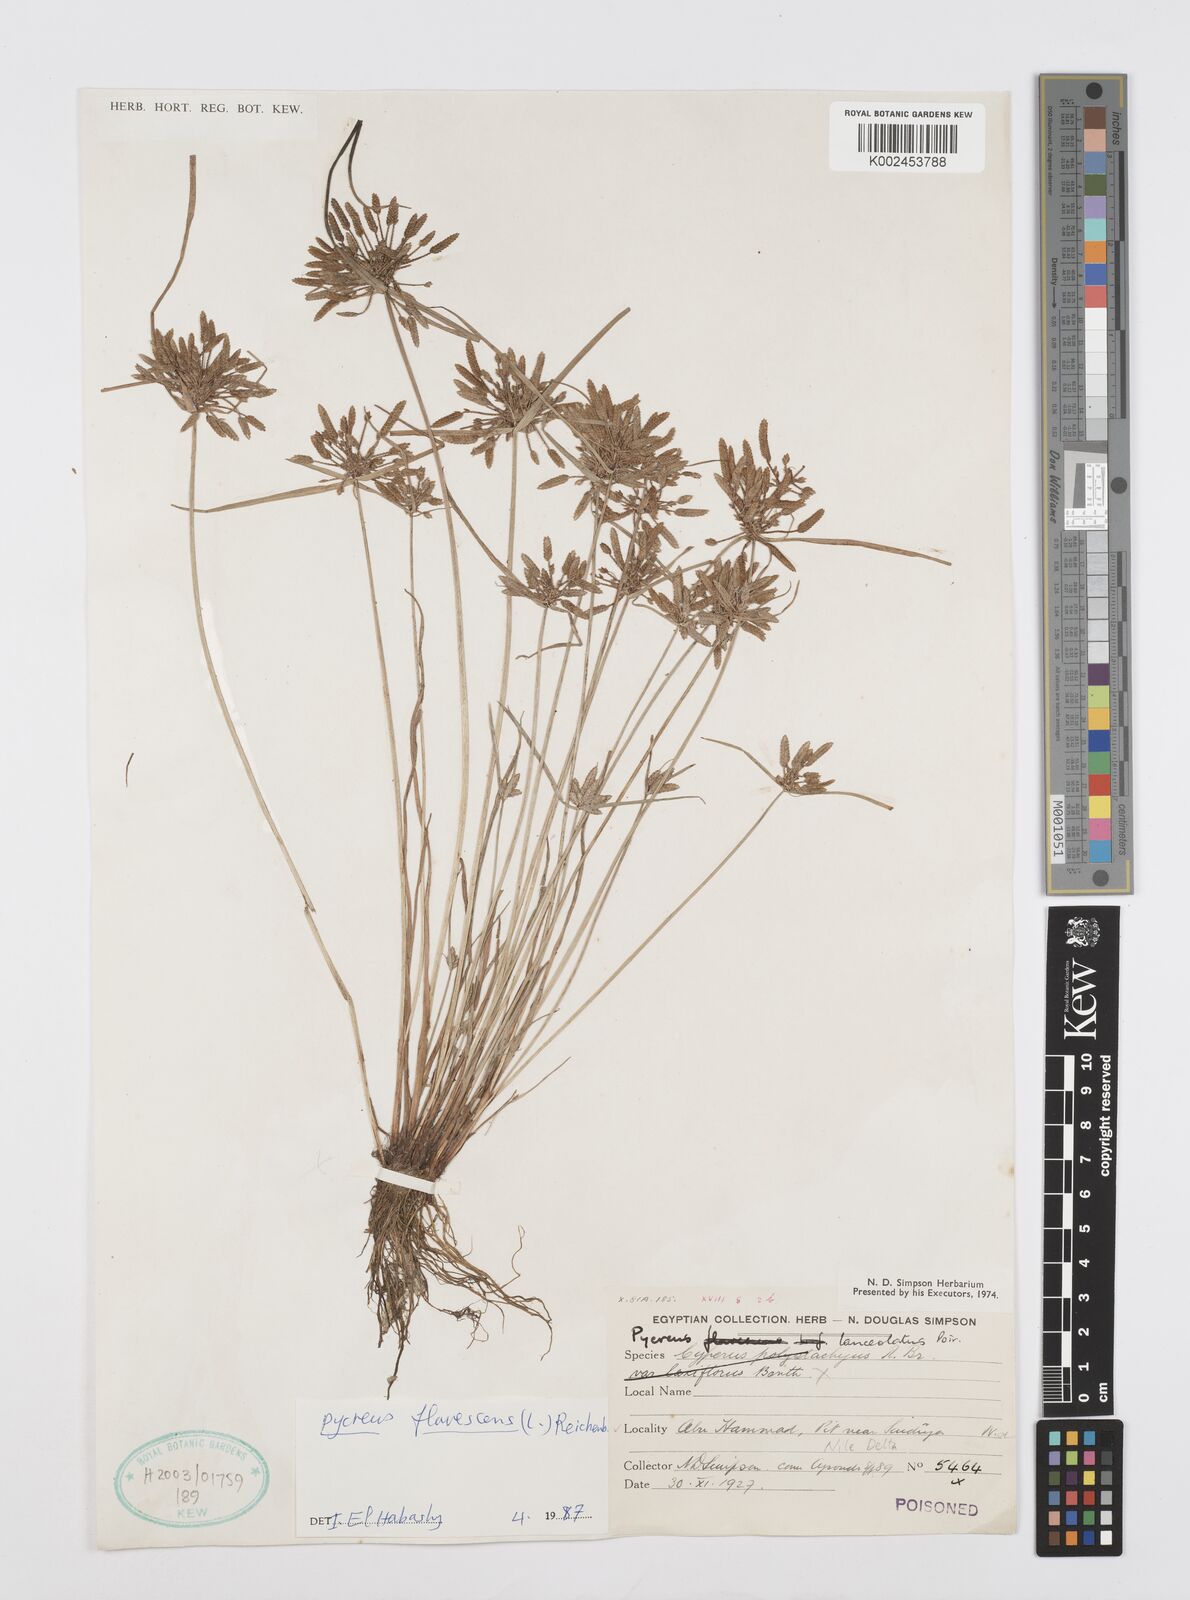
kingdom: Plantae
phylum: Tracheophyta
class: Liliopsida
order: Poales
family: Cyperaceae
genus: Cyperus
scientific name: Cyperus flavescens
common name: Yellow galingale
